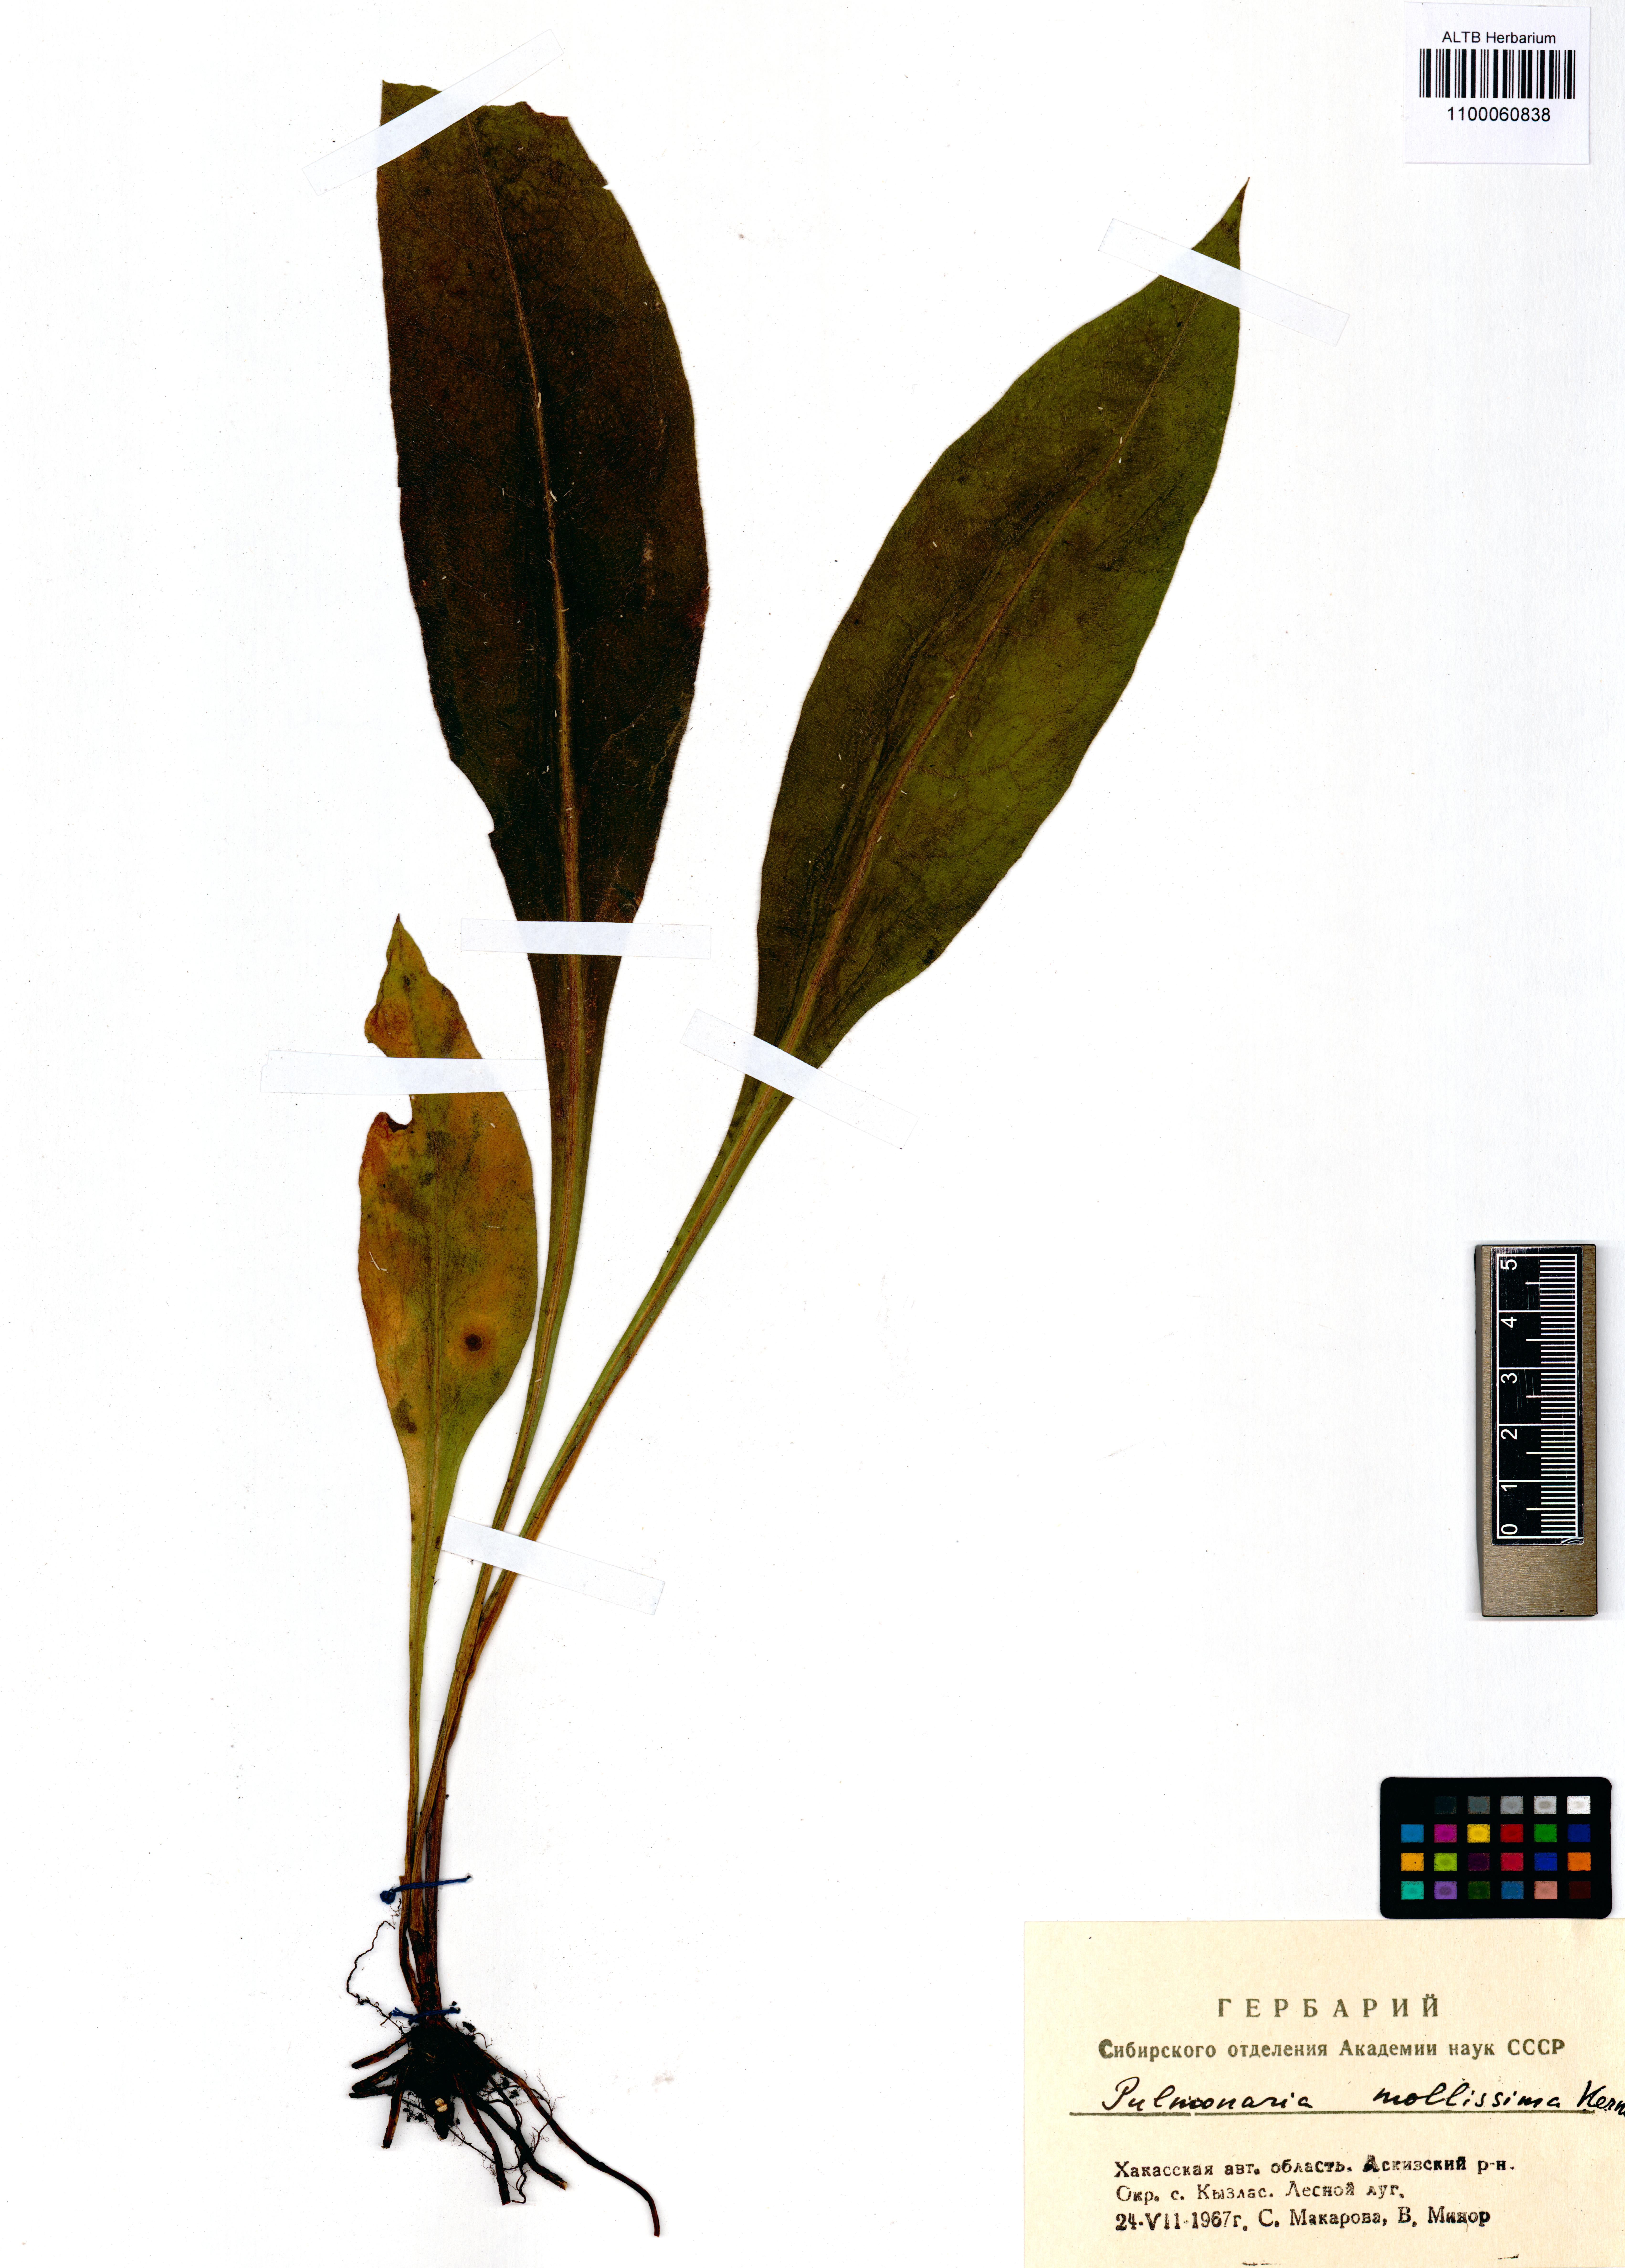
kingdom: Plantae
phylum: Tracheophyta
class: Magnoliopsida
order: Boraginales
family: Boraginaceae
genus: Pulmonaria
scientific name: Pulmonaria mollis
